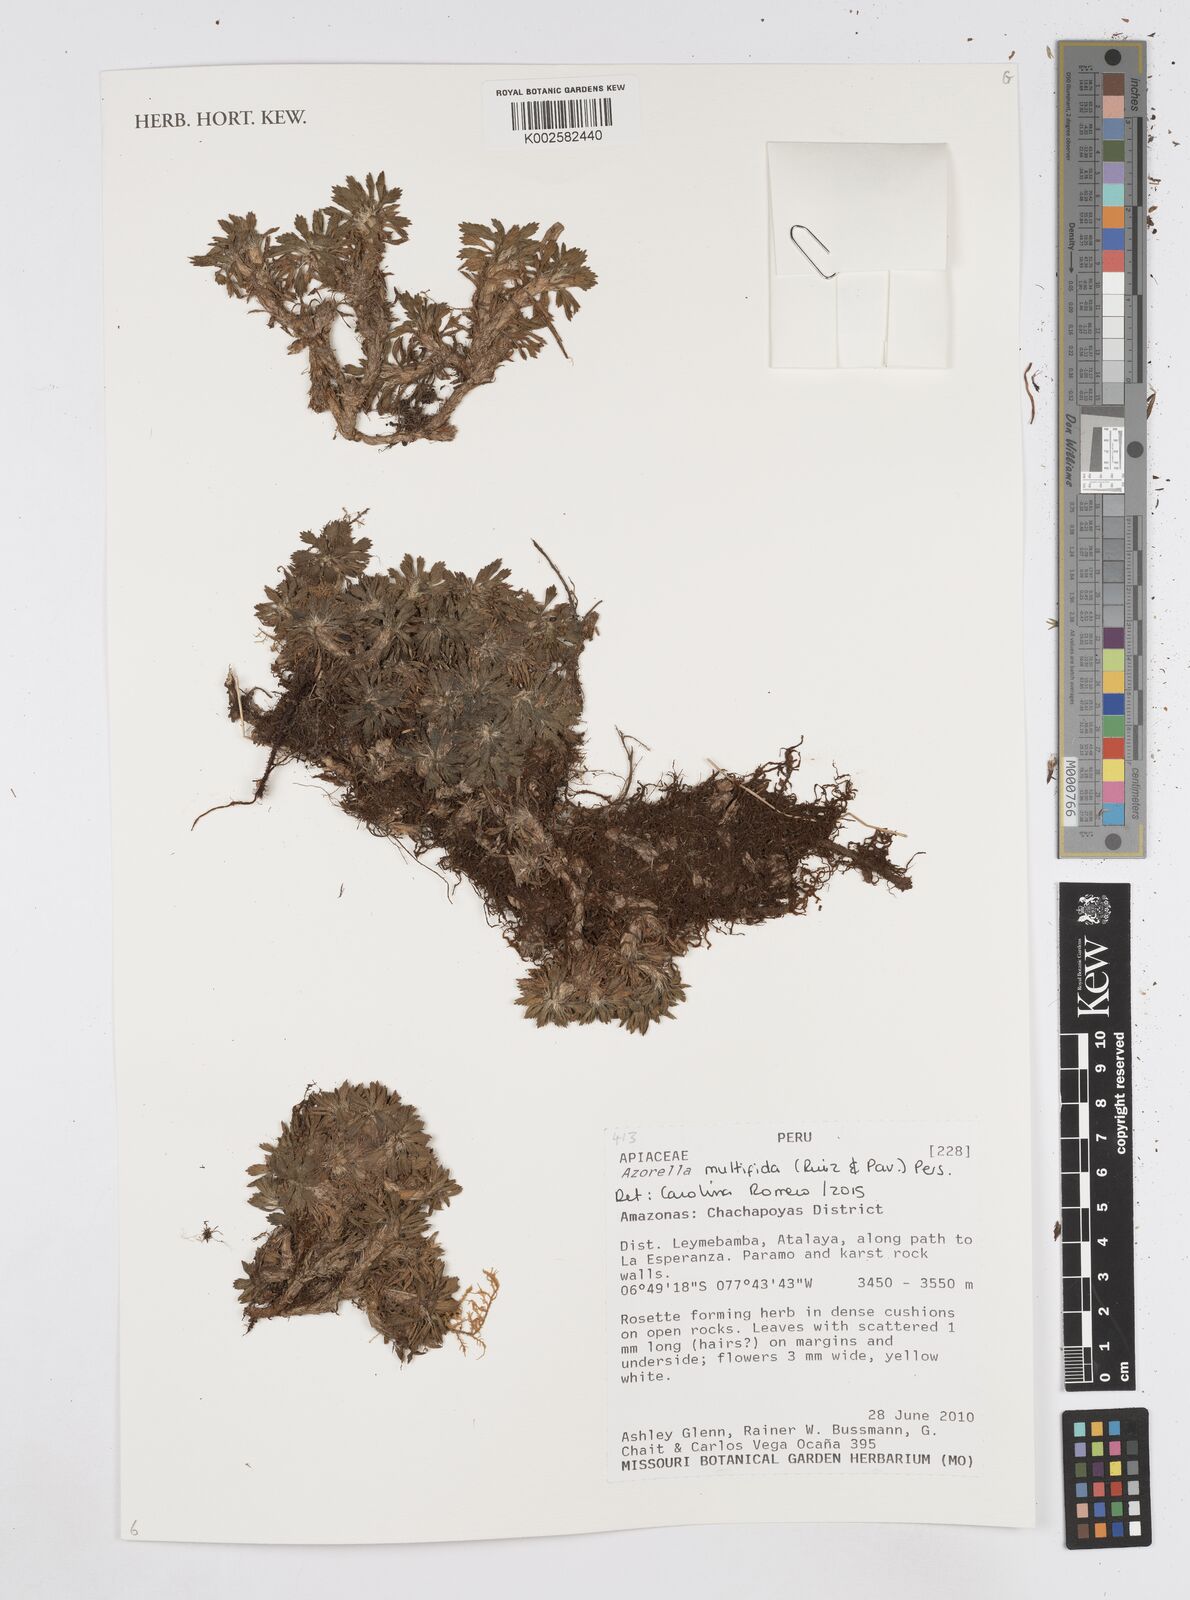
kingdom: Plantae
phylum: Tracheophyta
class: Magnoliopsida
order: Apiales
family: Apiaceae
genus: Azorella
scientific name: Azorella multifida
